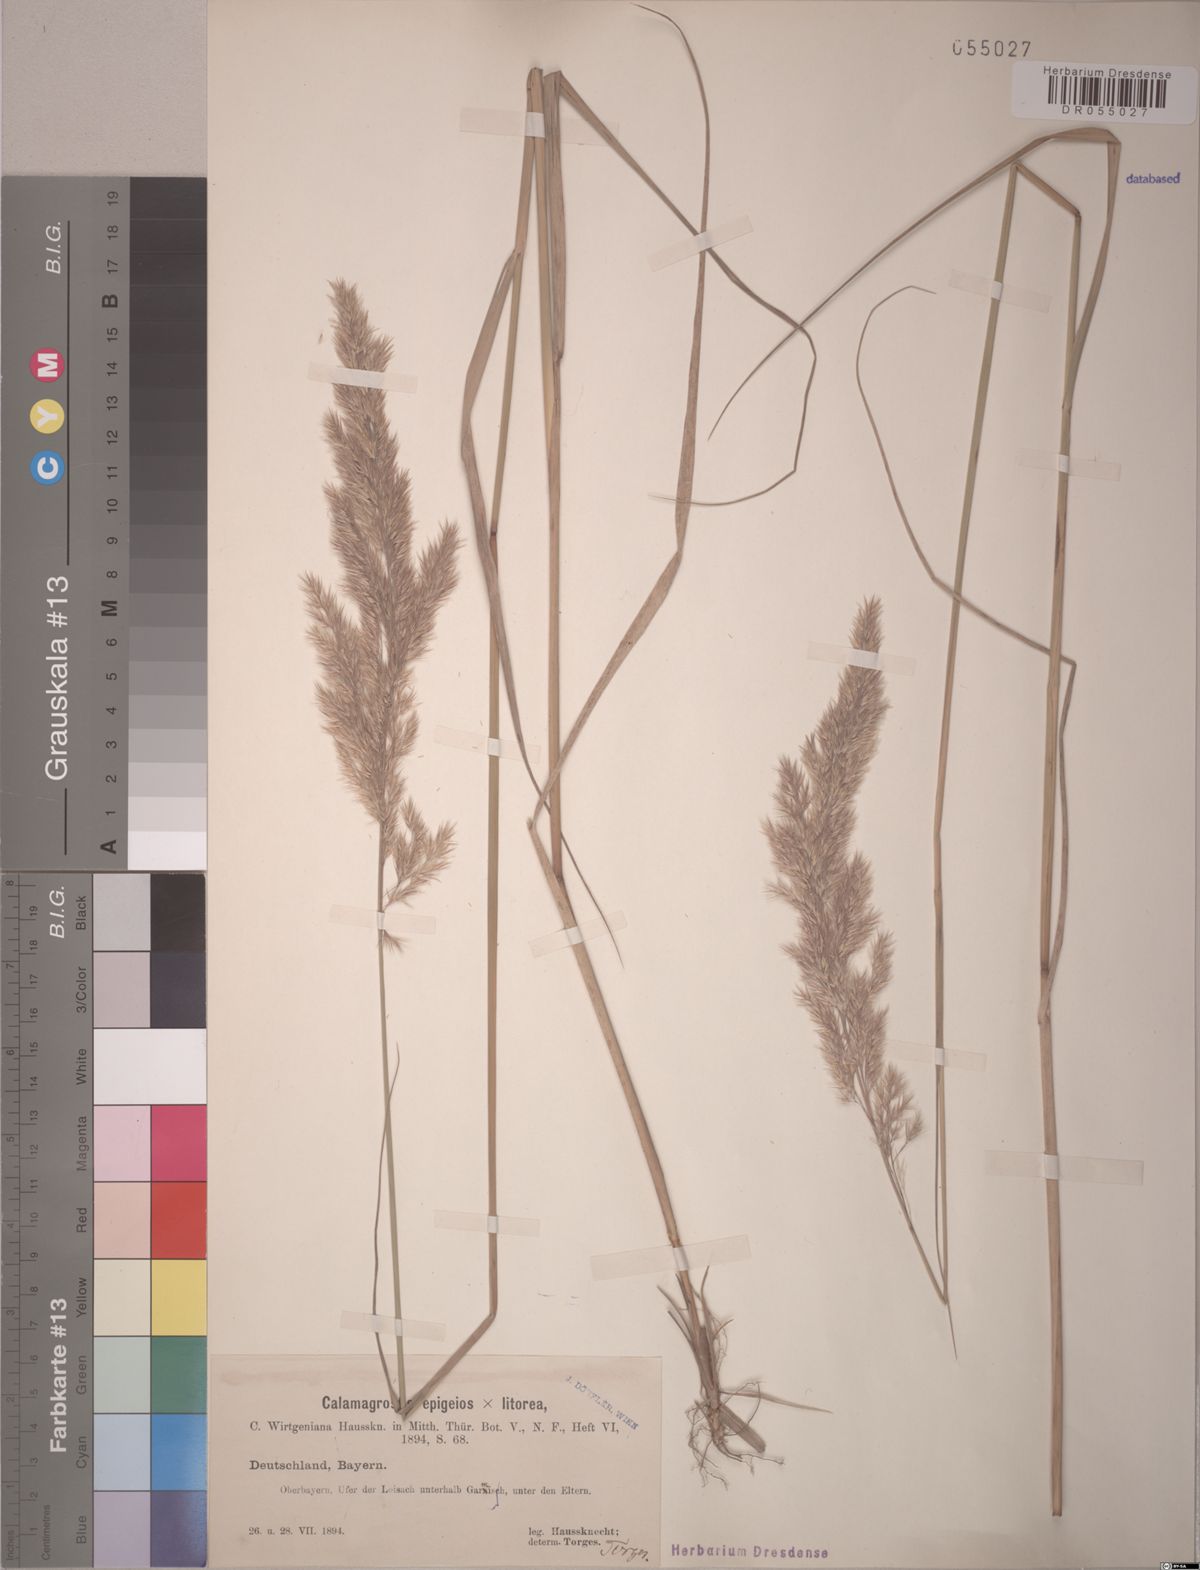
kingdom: Plantae
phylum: Tracheophyta
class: Liliopsida
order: Poales
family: Poaceae
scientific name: Poaceae
